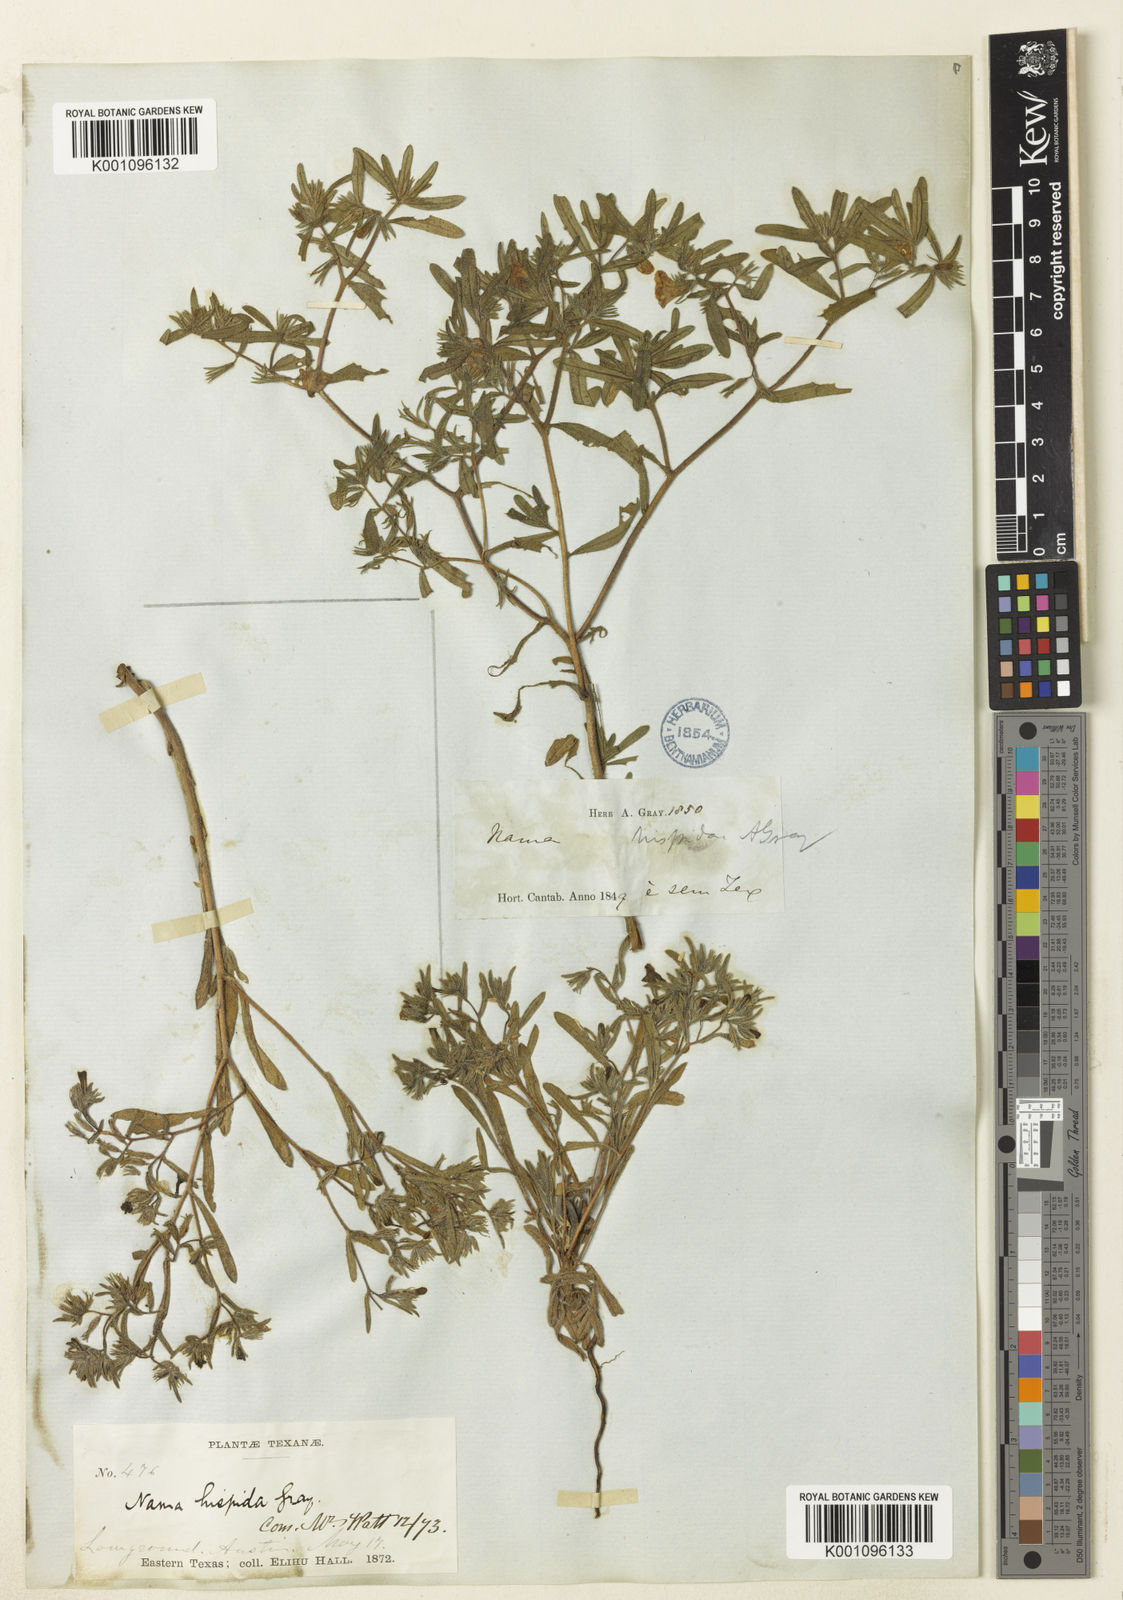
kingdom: Plantae
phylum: Tracheophyta
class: Magnoliopsida
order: Boraginales
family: Namaceae
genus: Nama
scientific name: Nama hispida
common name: Bristly nama
